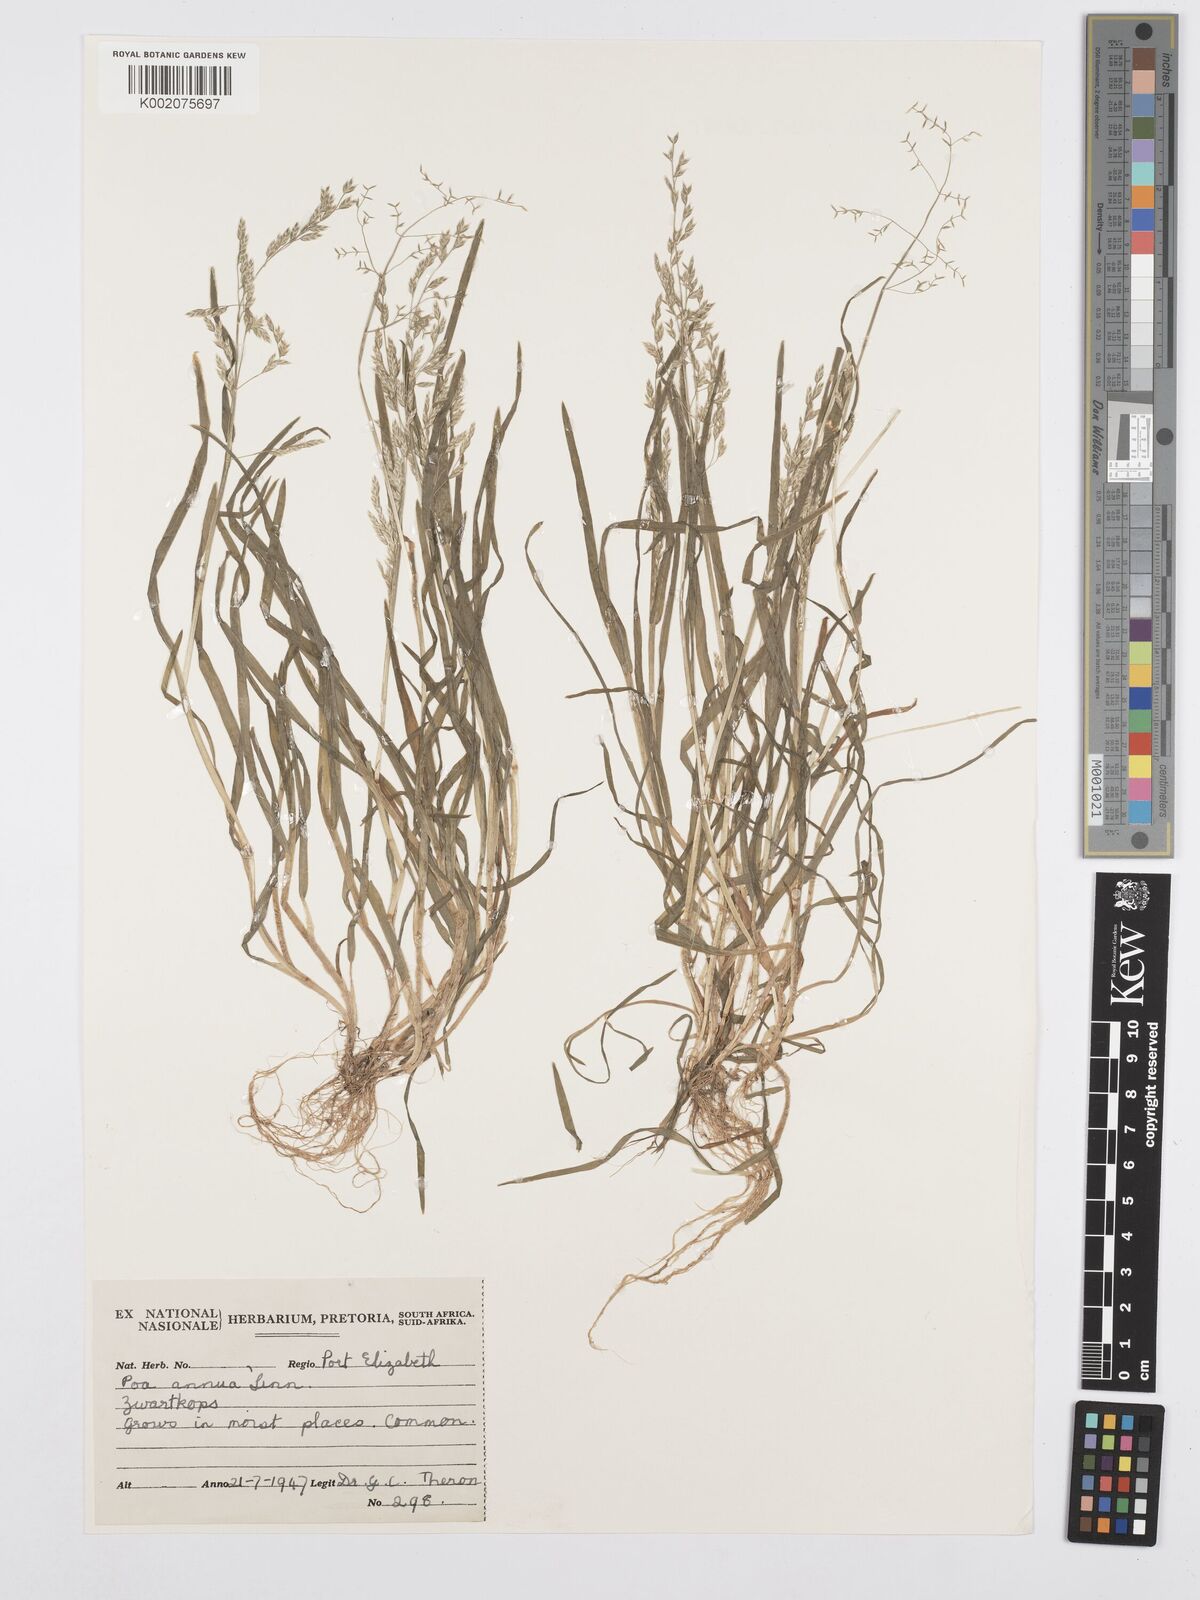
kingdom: Plantae
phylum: Tracheophyta
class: Liliopsida
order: Poales
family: Poaceae
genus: Poa
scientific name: Poa annua
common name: Annual bluegrass
